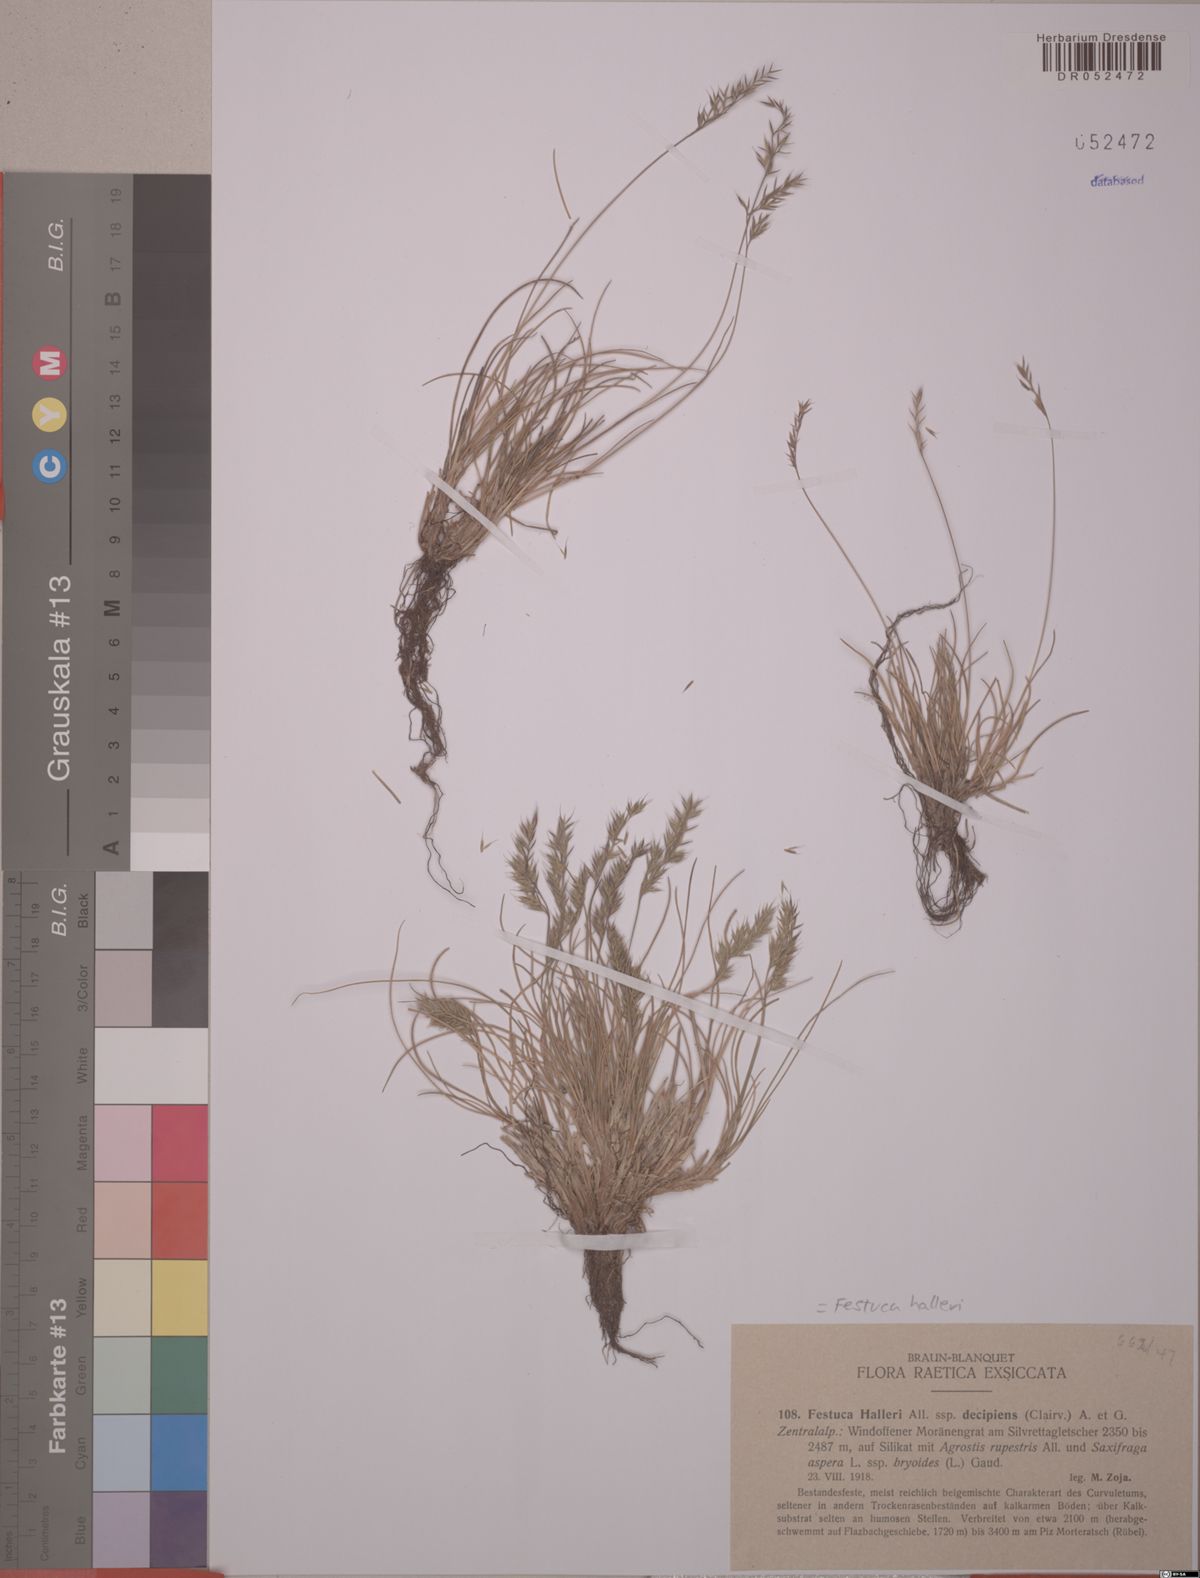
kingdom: Plantae
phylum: Tracheophyta
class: Liliopsida
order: Poales
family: Poaceae
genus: Festuca
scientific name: Festuca halleri
